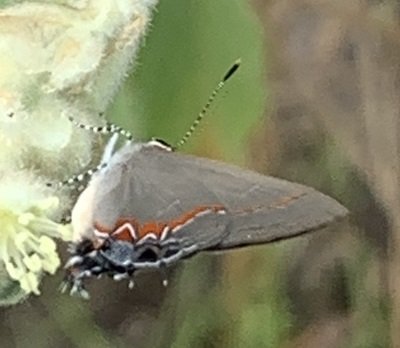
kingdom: Animalia
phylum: Arthropoda
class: Insecta
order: Lepidoptera
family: Lycaenidae
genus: Calycopis
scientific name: Calycopis isobeon
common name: Dusky-blue Groundstreak
